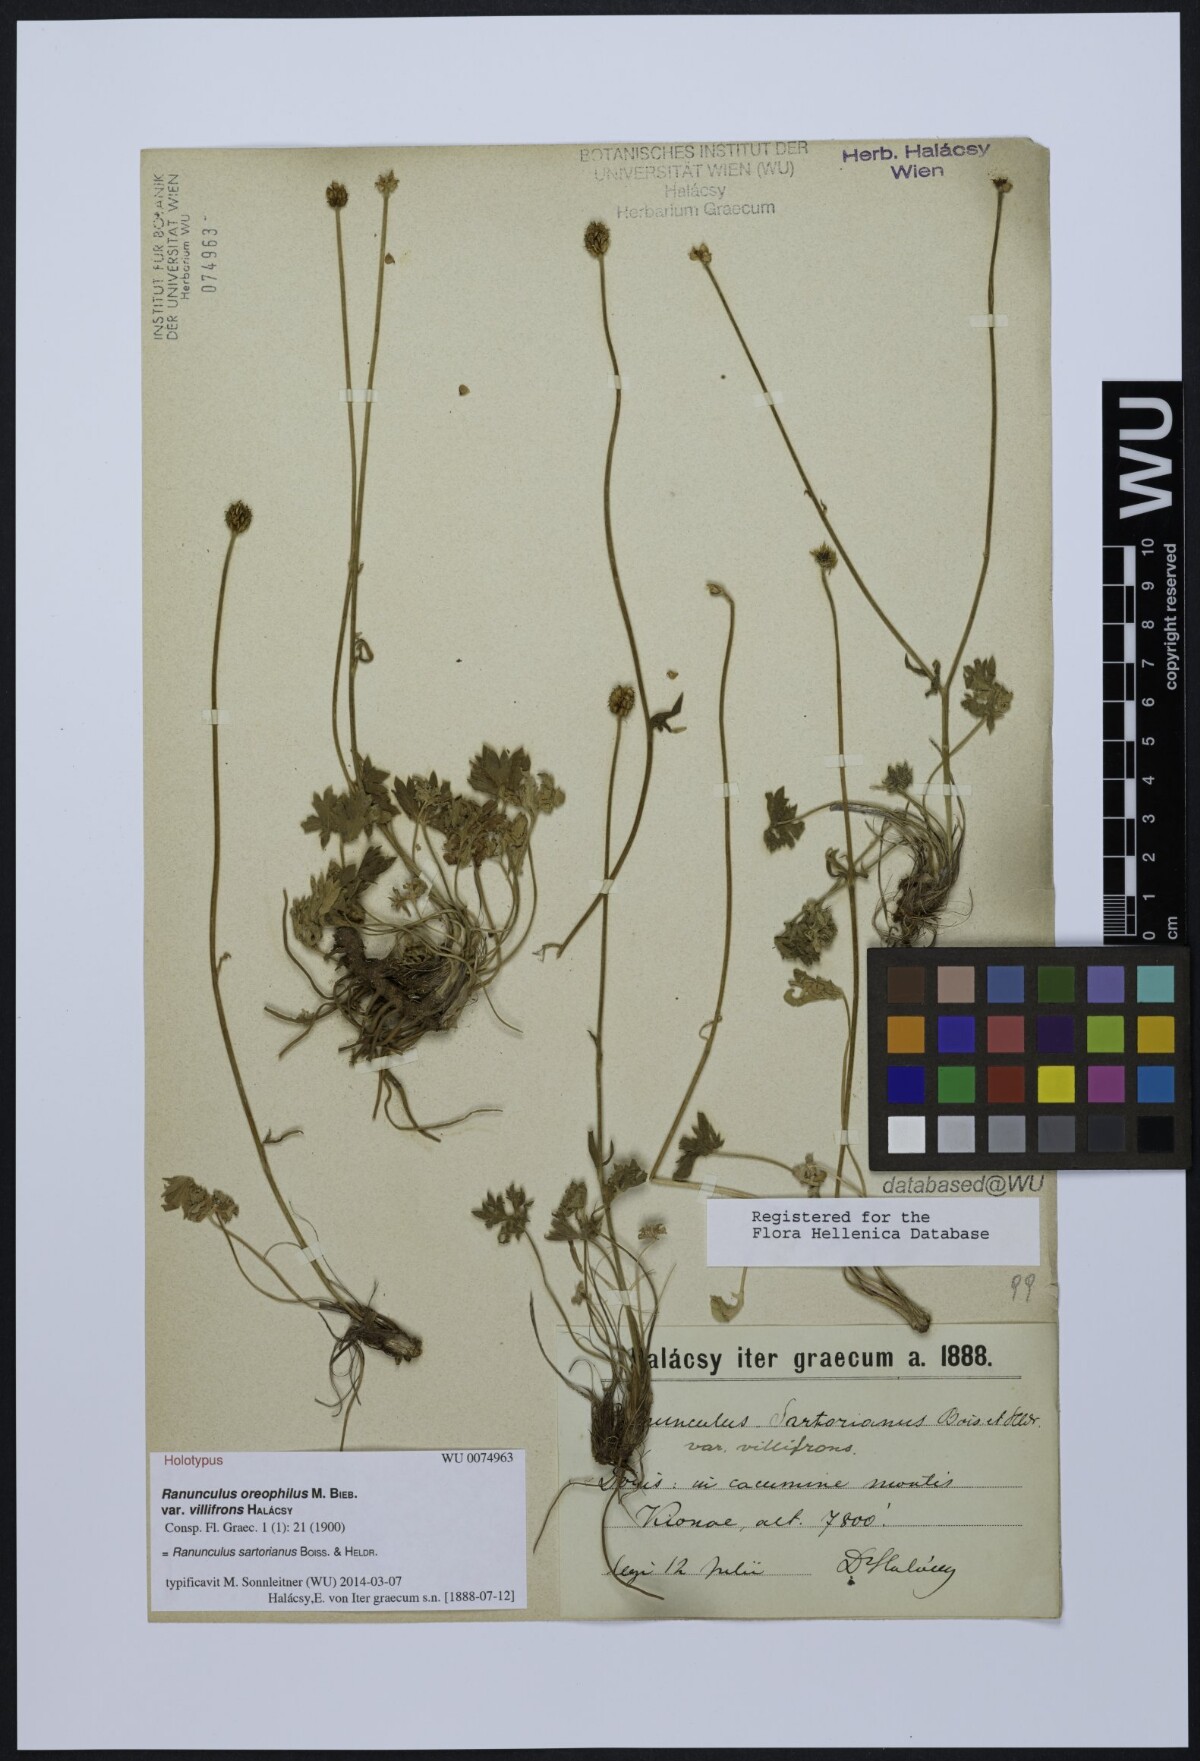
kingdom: Plantae
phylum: Tracheophyta
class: Magnoliopsida
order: Ranunculales
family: Ranunculaceae
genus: Ranunculus
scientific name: Ranunculus oreophilus
